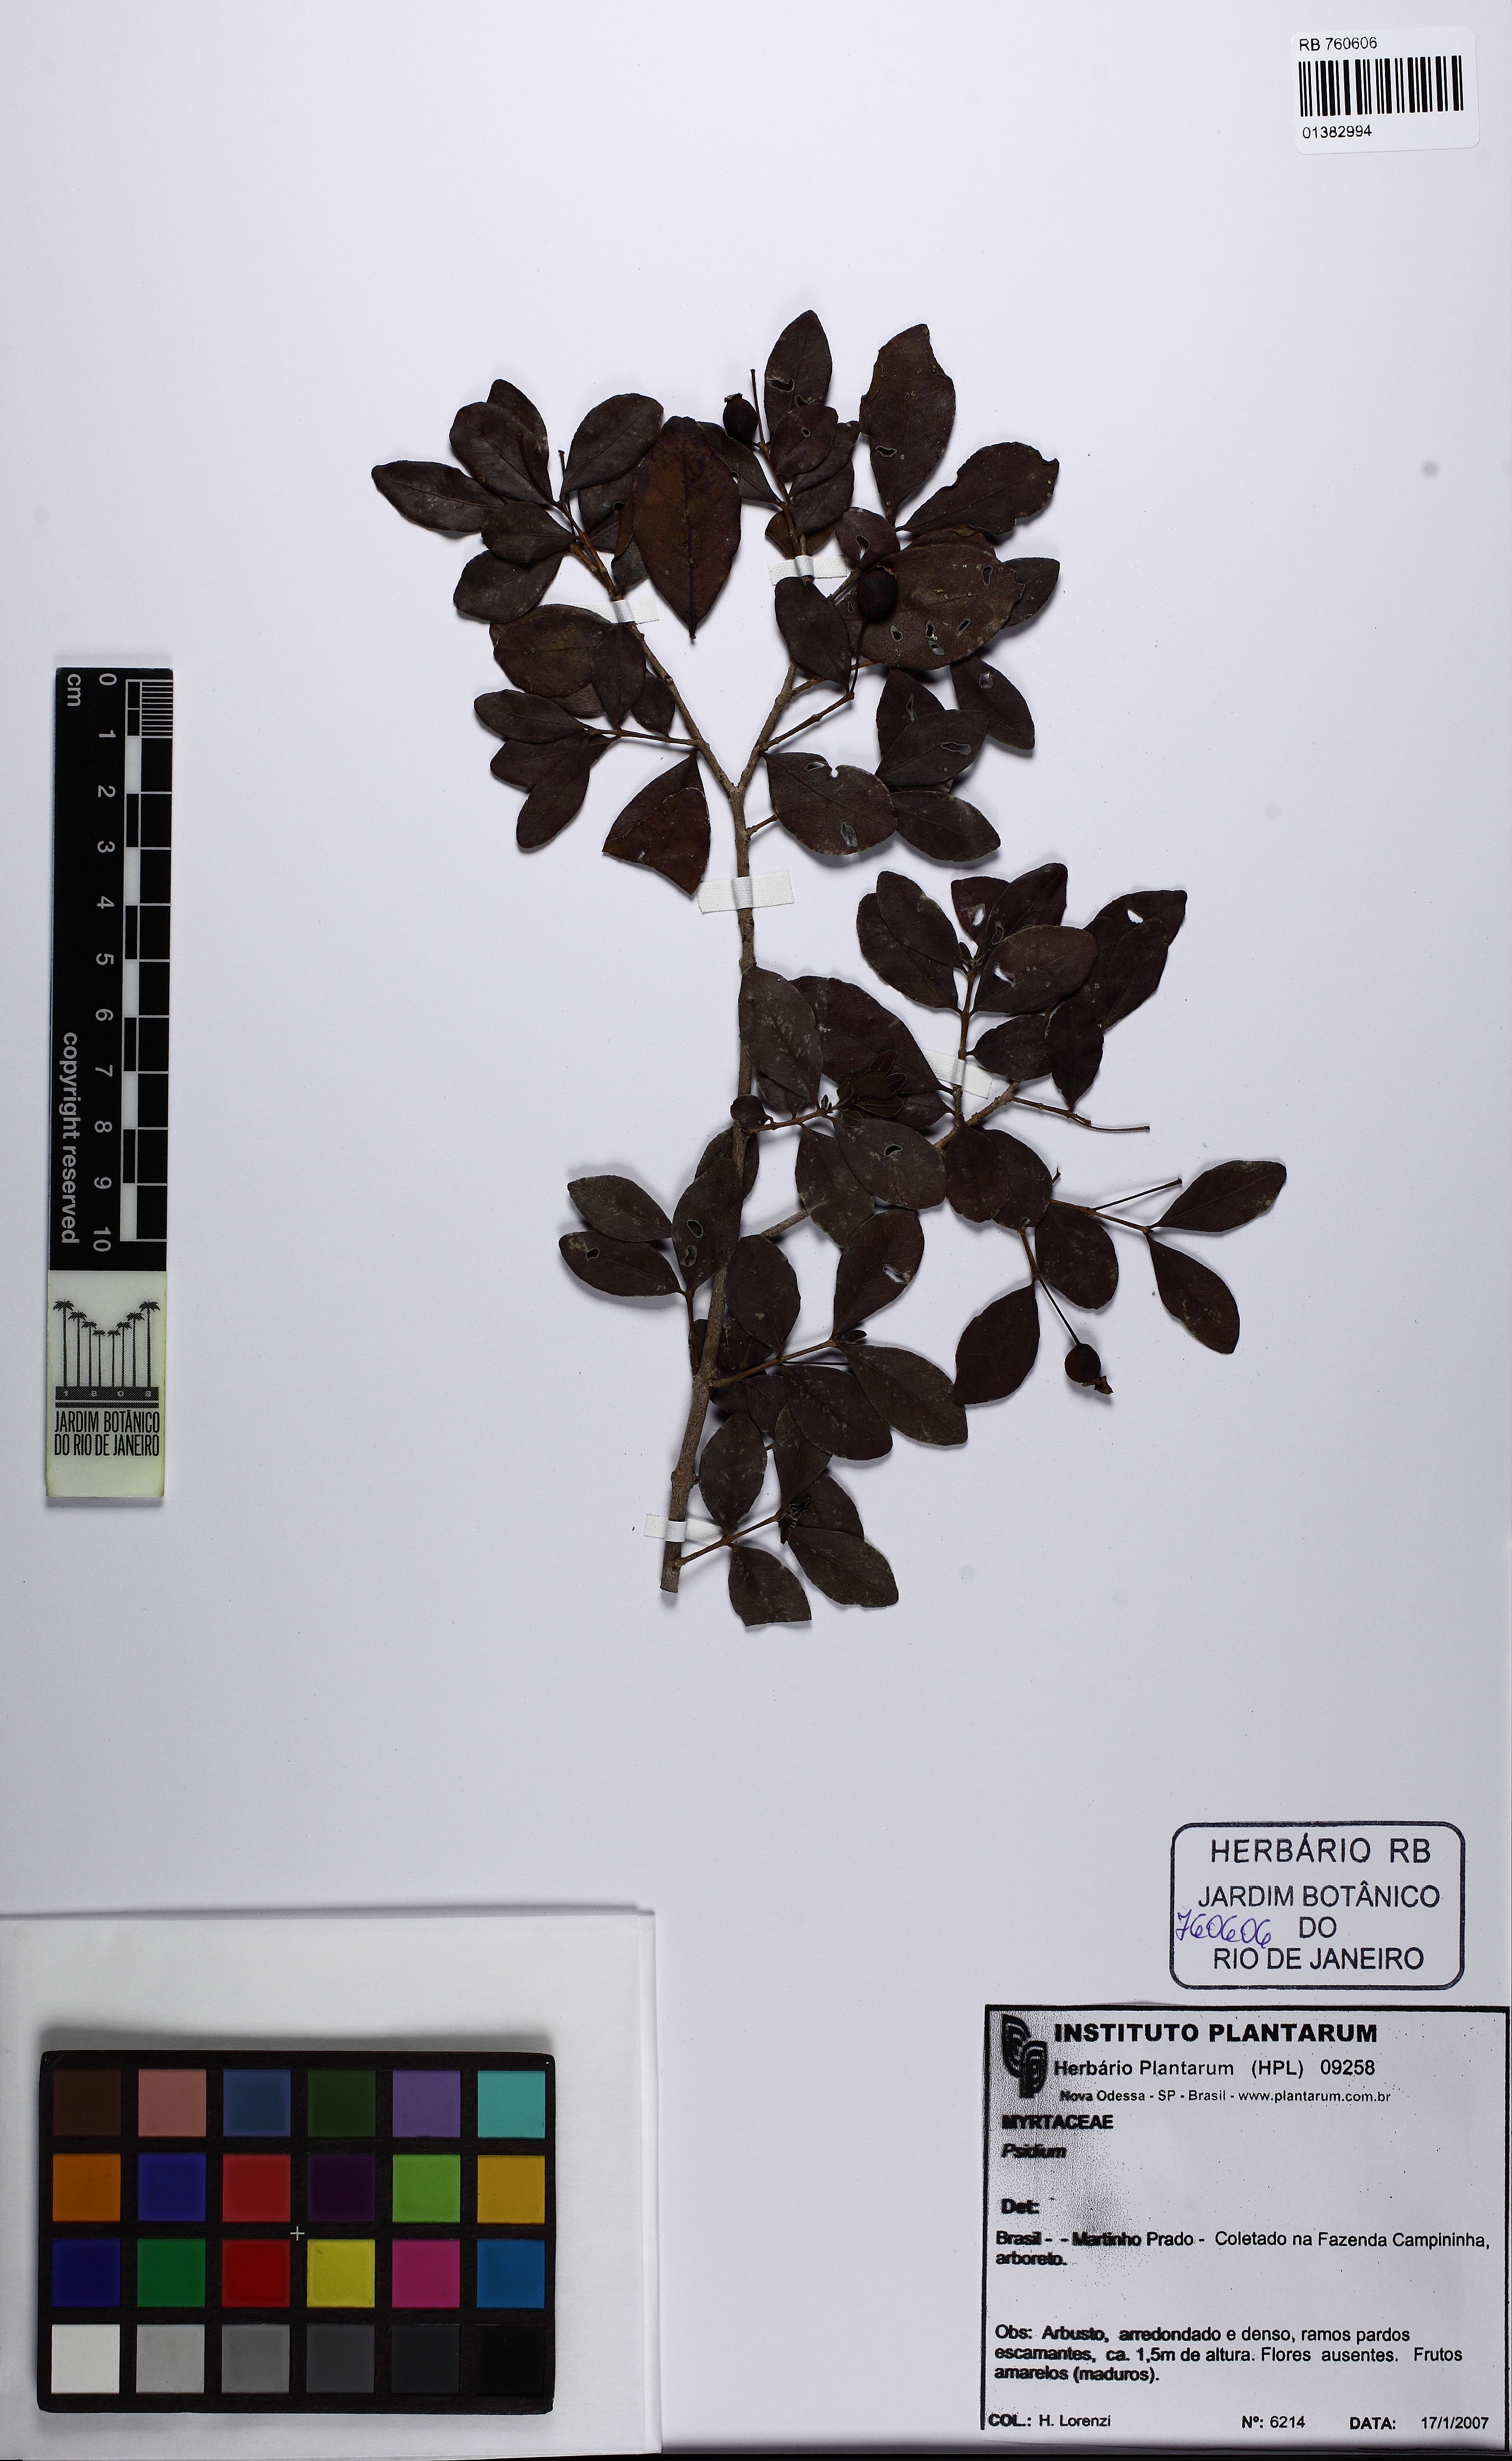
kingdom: Plantae
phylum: Tracheophyta
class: Magnoliopsida
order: Myrtales
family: Myrtaceae
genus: Psidium
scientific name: Psidium sartorianum
